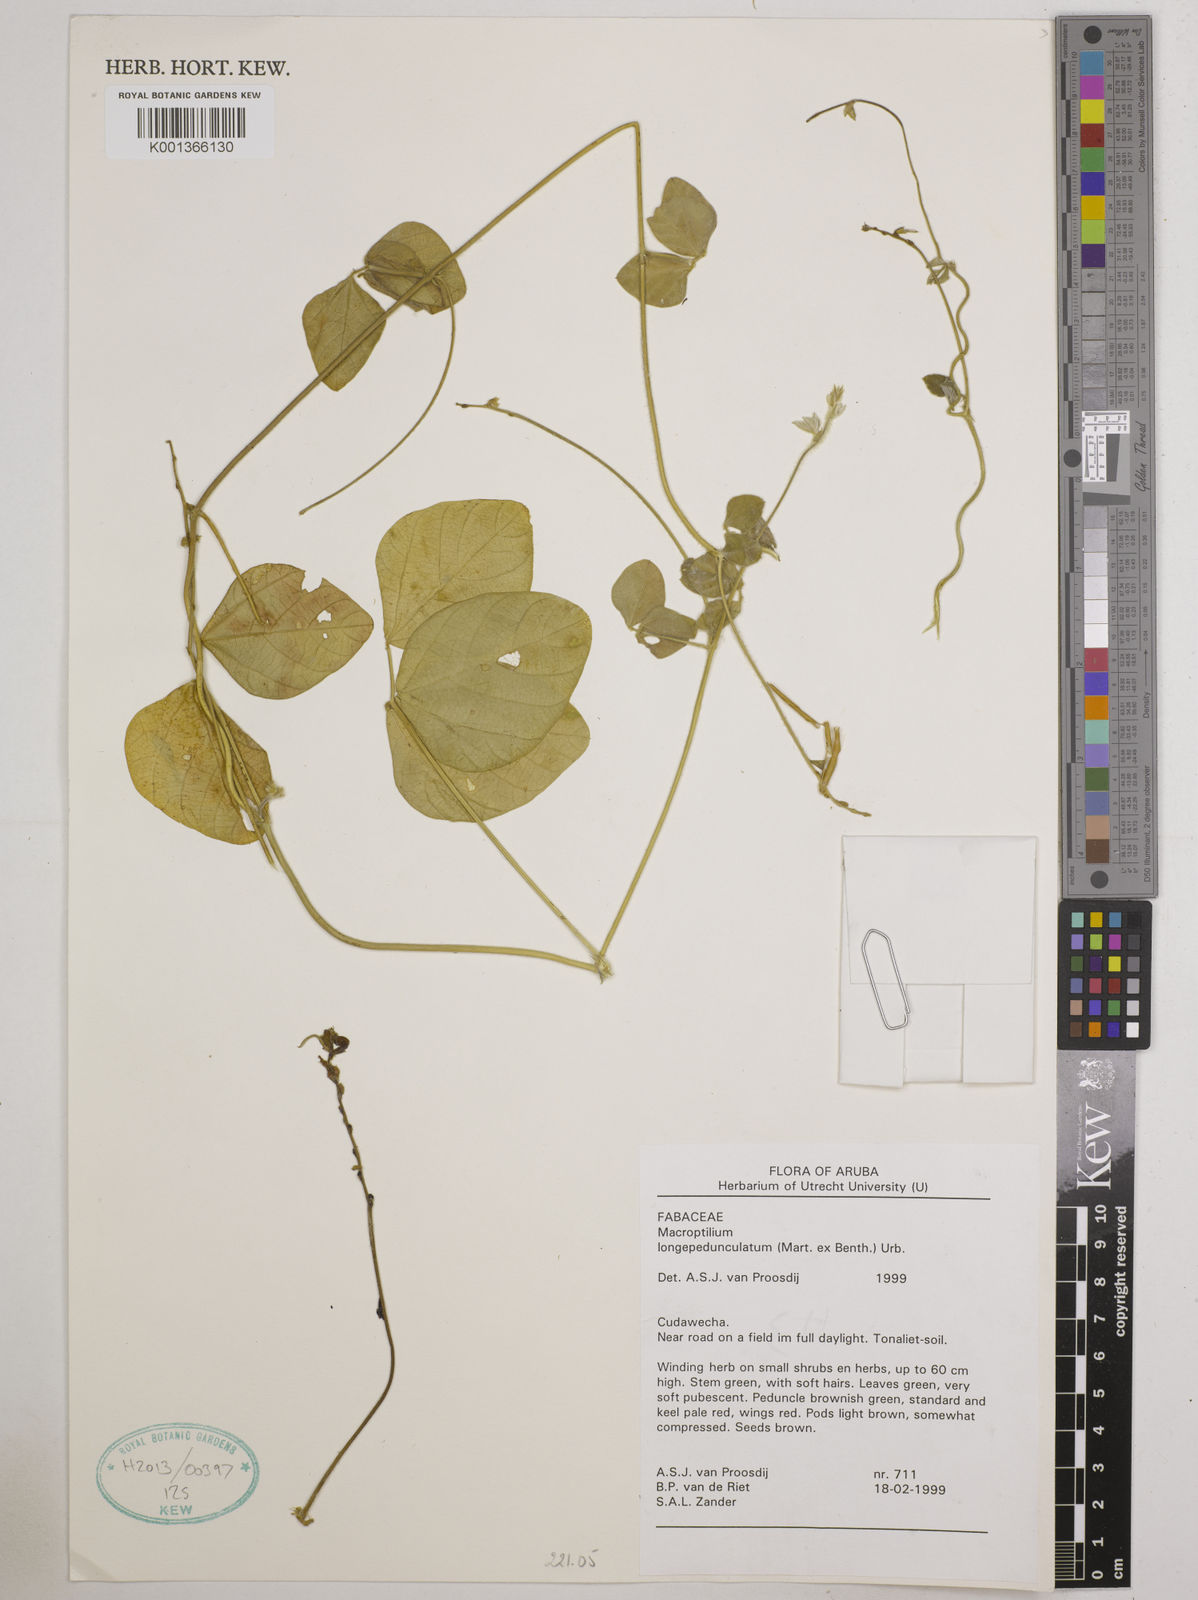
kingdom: Plantae
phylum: Tracheophyta
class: Magnoliopsida
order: Fabales
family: Fabaceae
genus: Macroptilium
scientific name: Macroptilium longepedunculatum
